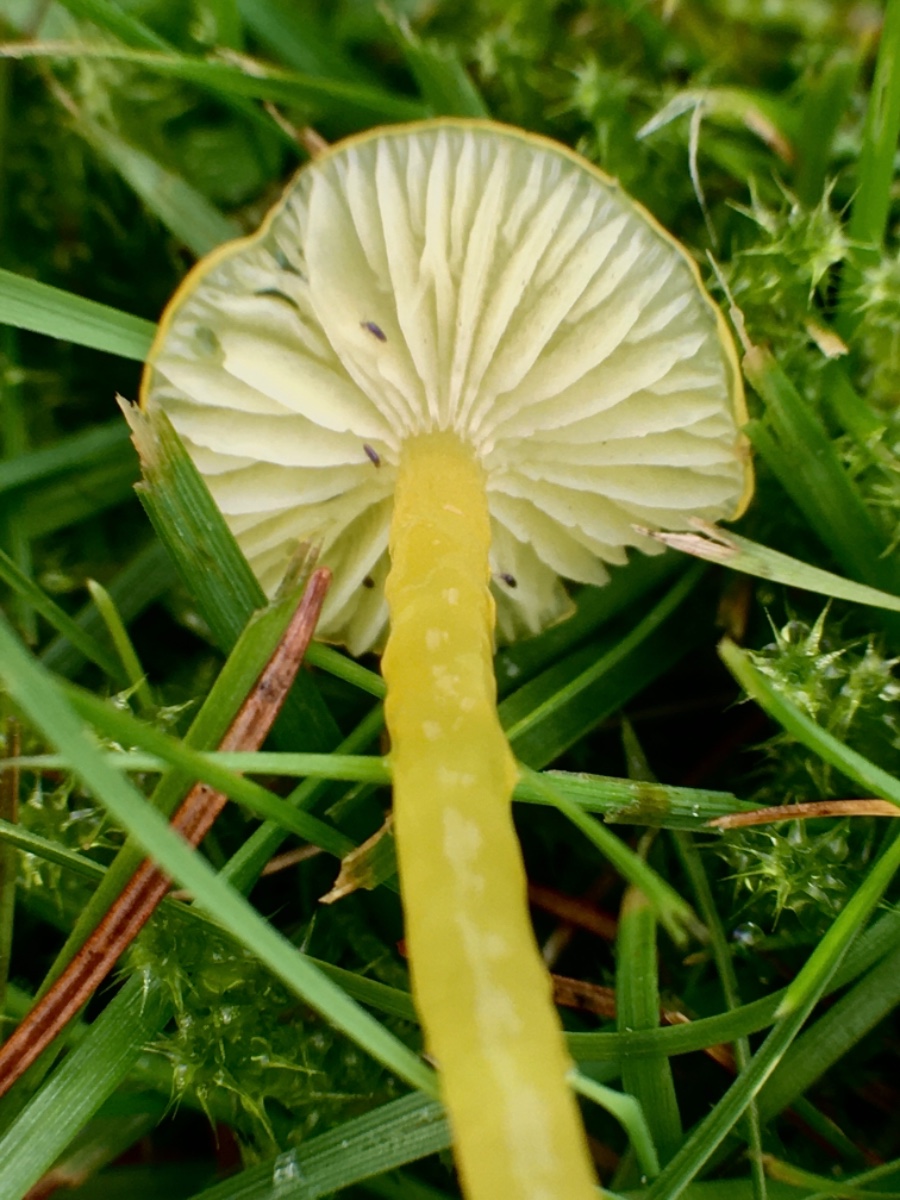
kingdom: Fungi
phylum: Basidiomycota
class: Agaricomycetes
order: Agaricales
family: Hygrophoraceae
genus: Hygrocybe
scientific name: Hygrocybe glutinipes
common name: slimstokket vokshat
